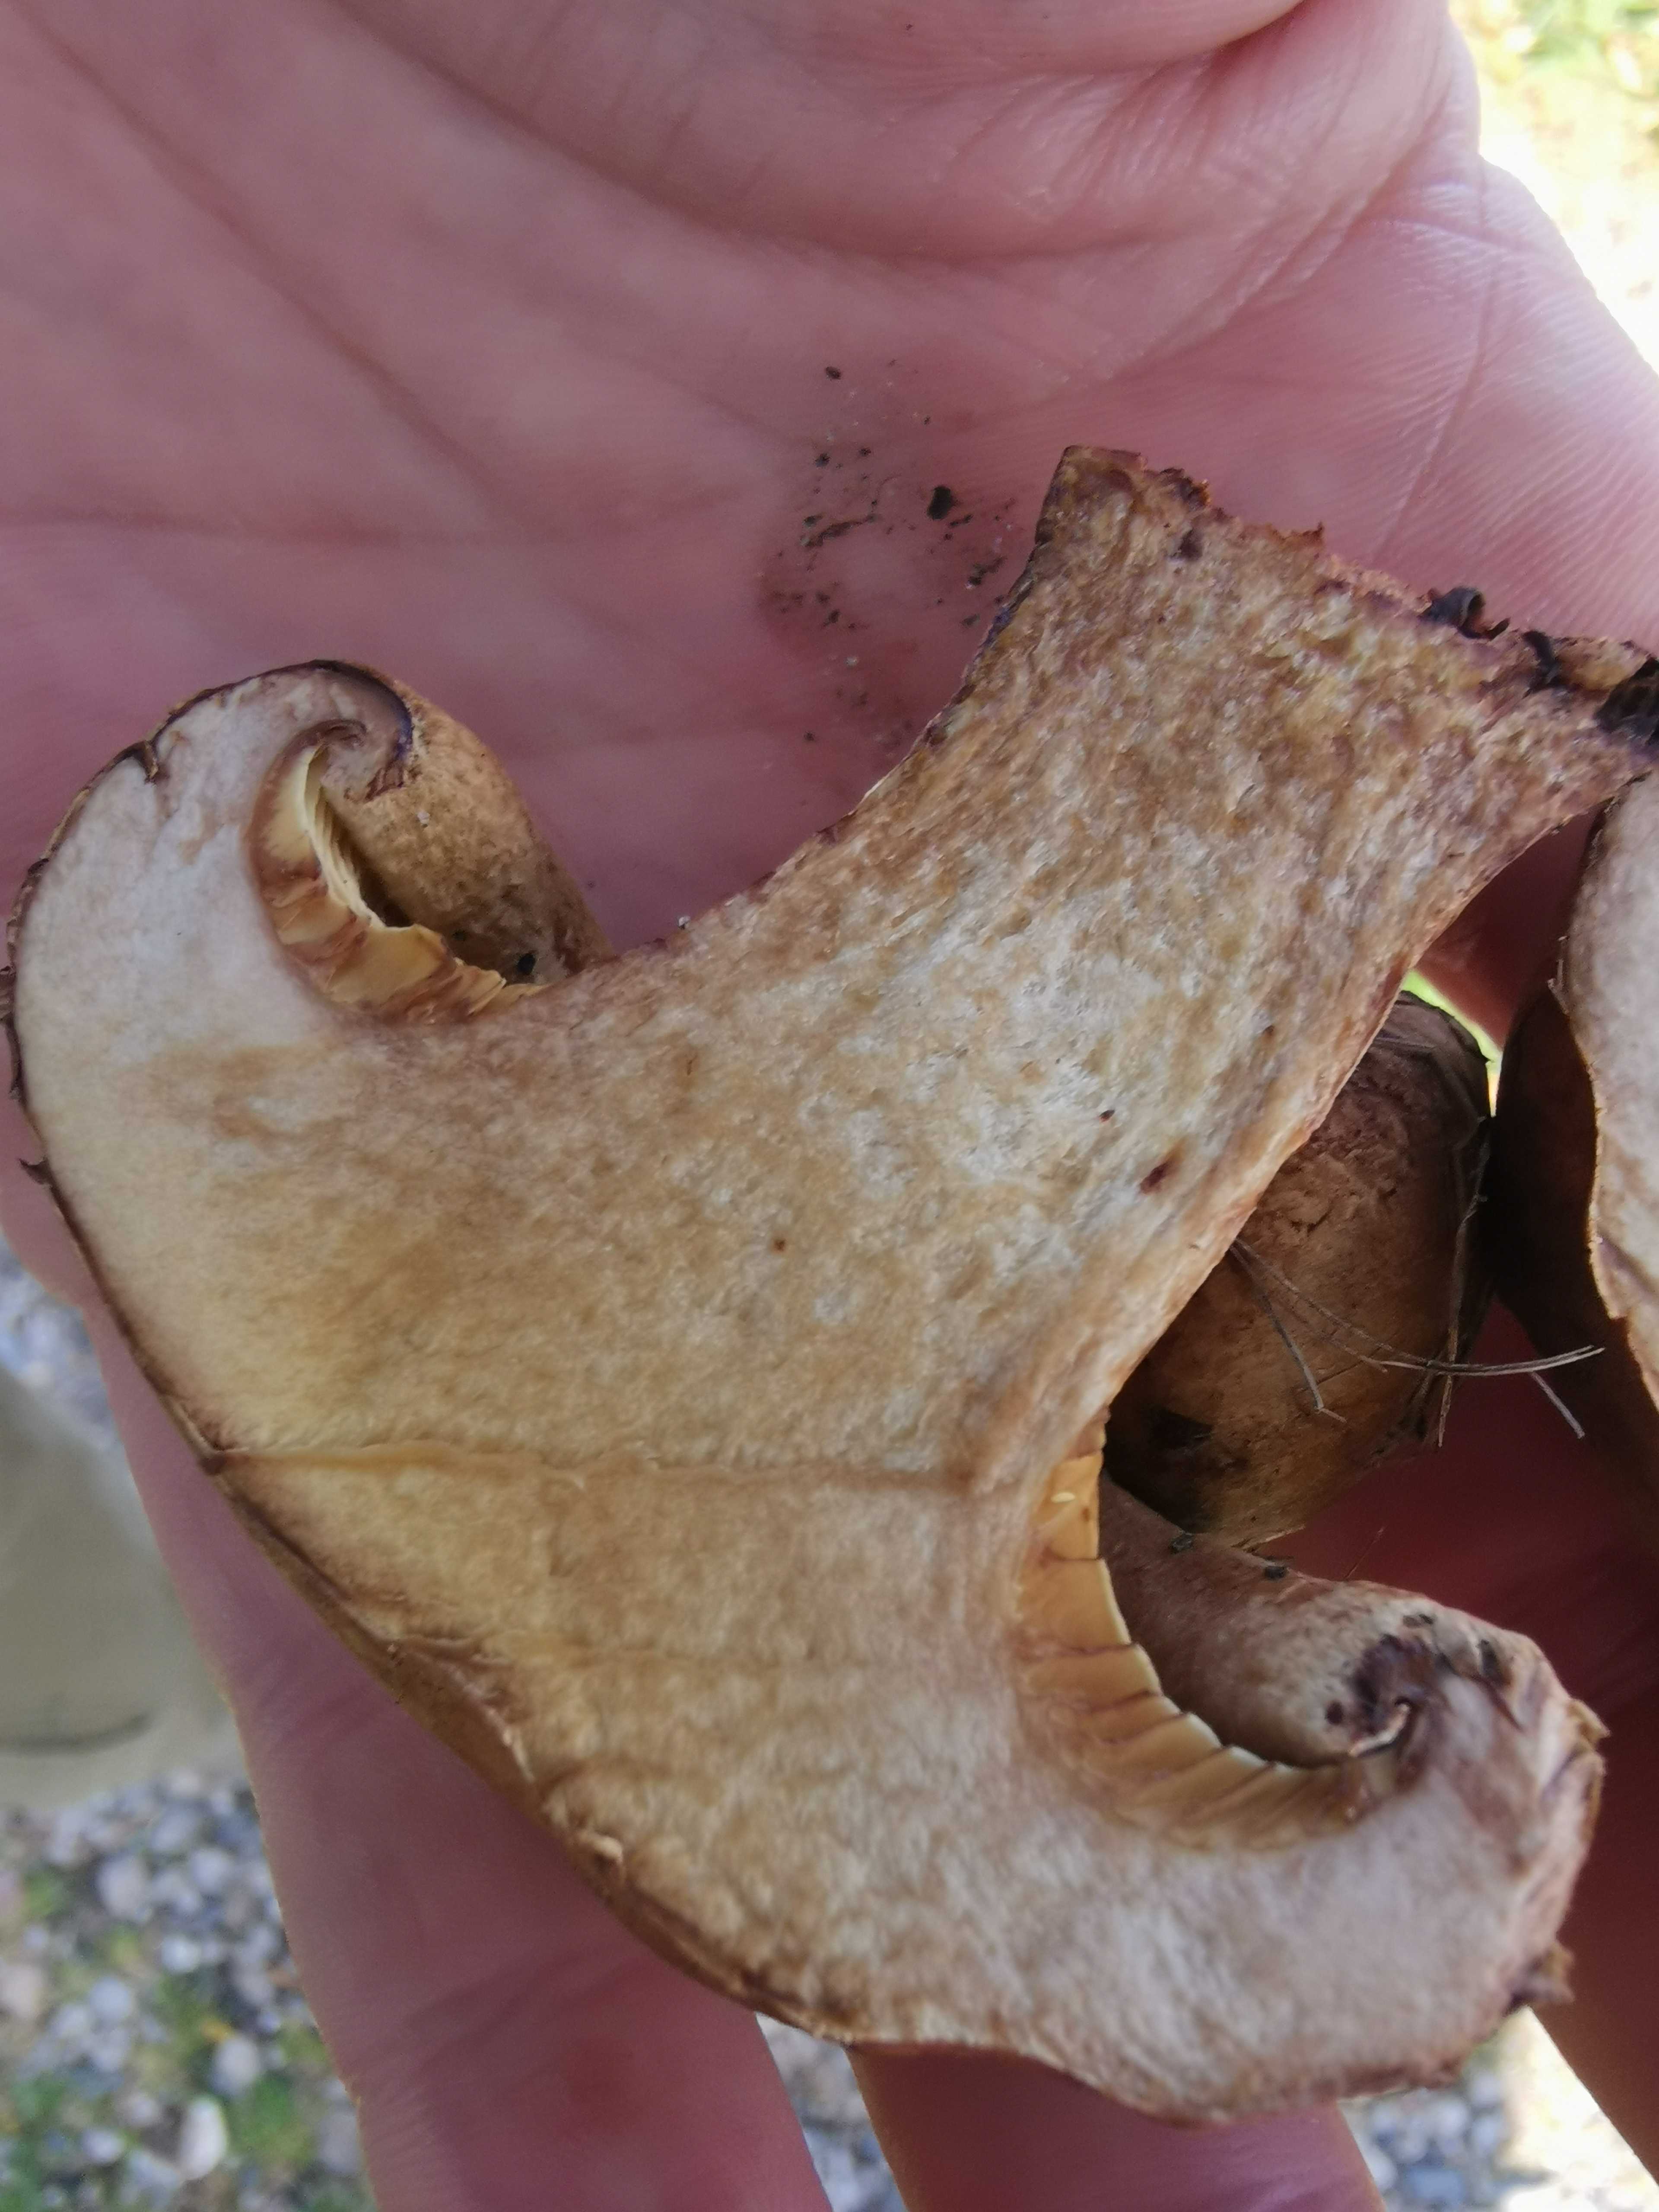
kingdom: Fungi
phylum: Basidiomycota
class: Agaricomycetes
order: Boletales
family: Paxillaceae
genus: Paxillus
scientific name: Paxillus
